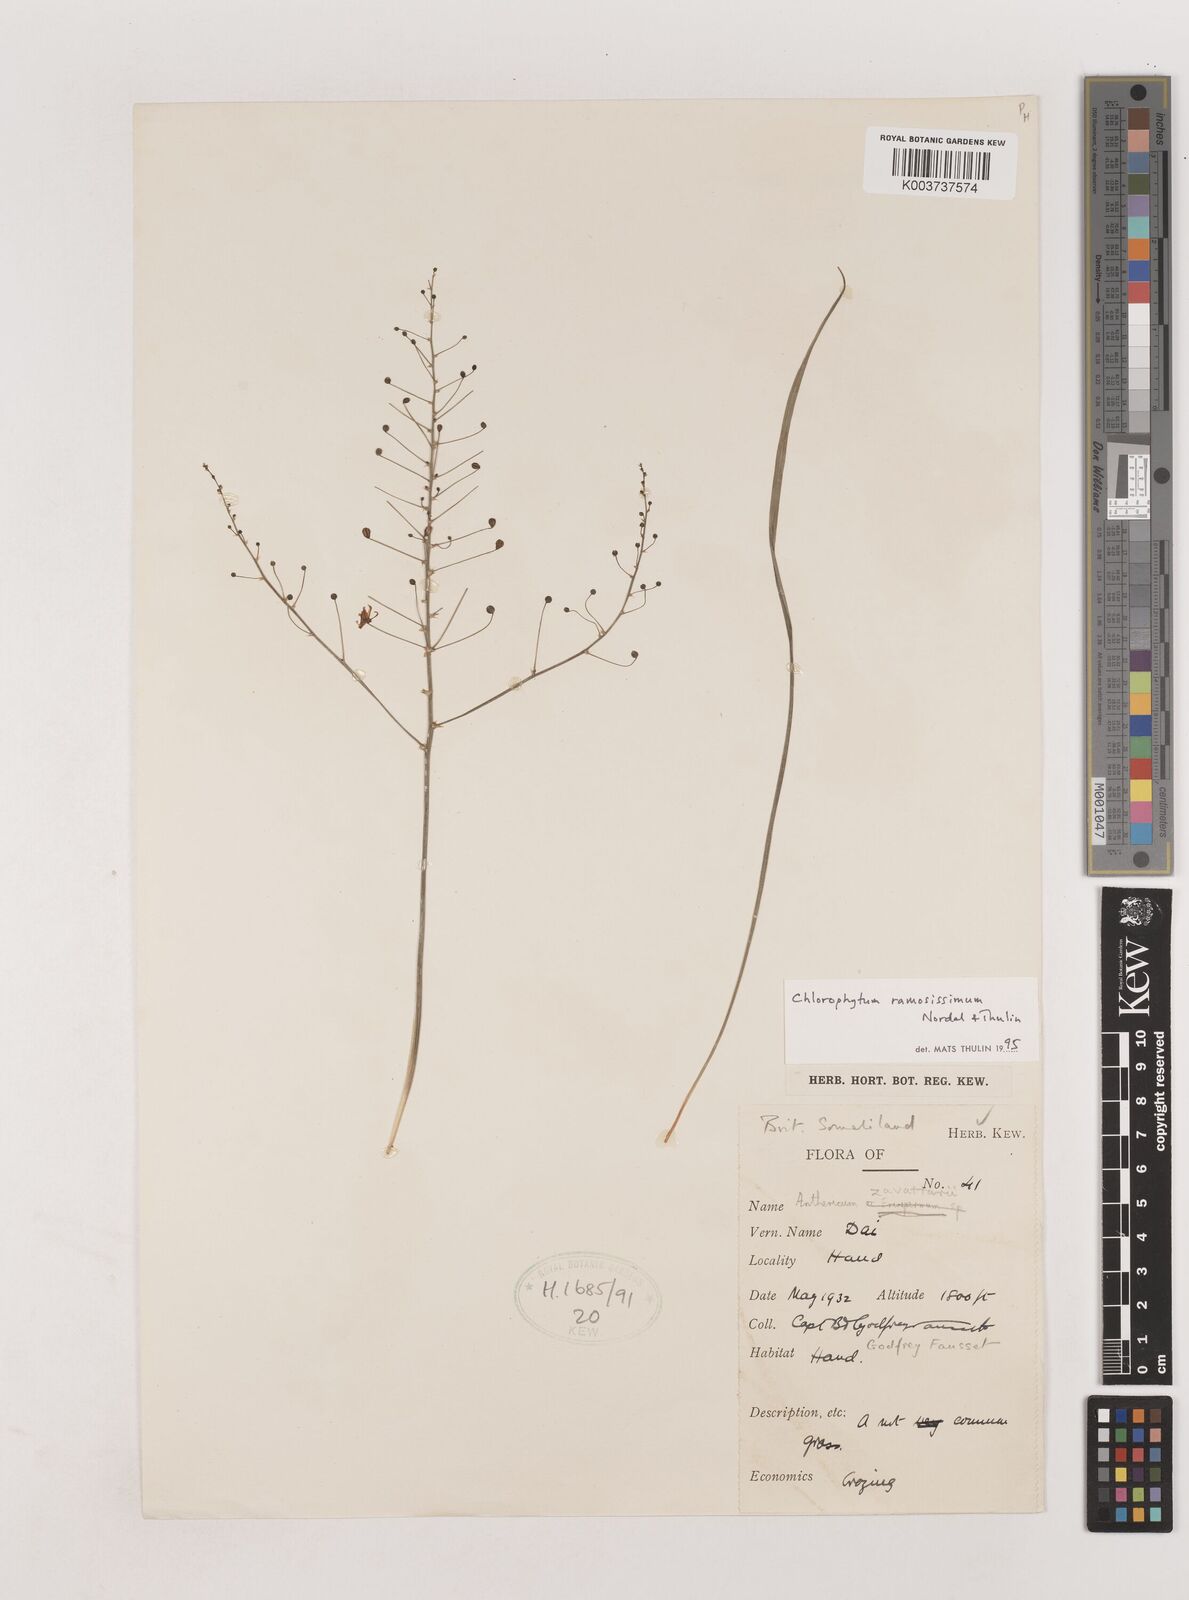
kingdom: Plantae
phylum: Tracheophyta
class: Liliopsida
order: Asparagales
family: Asparagaceae
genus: Chlorophytum
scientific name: Chlorophytum ramosissimum
